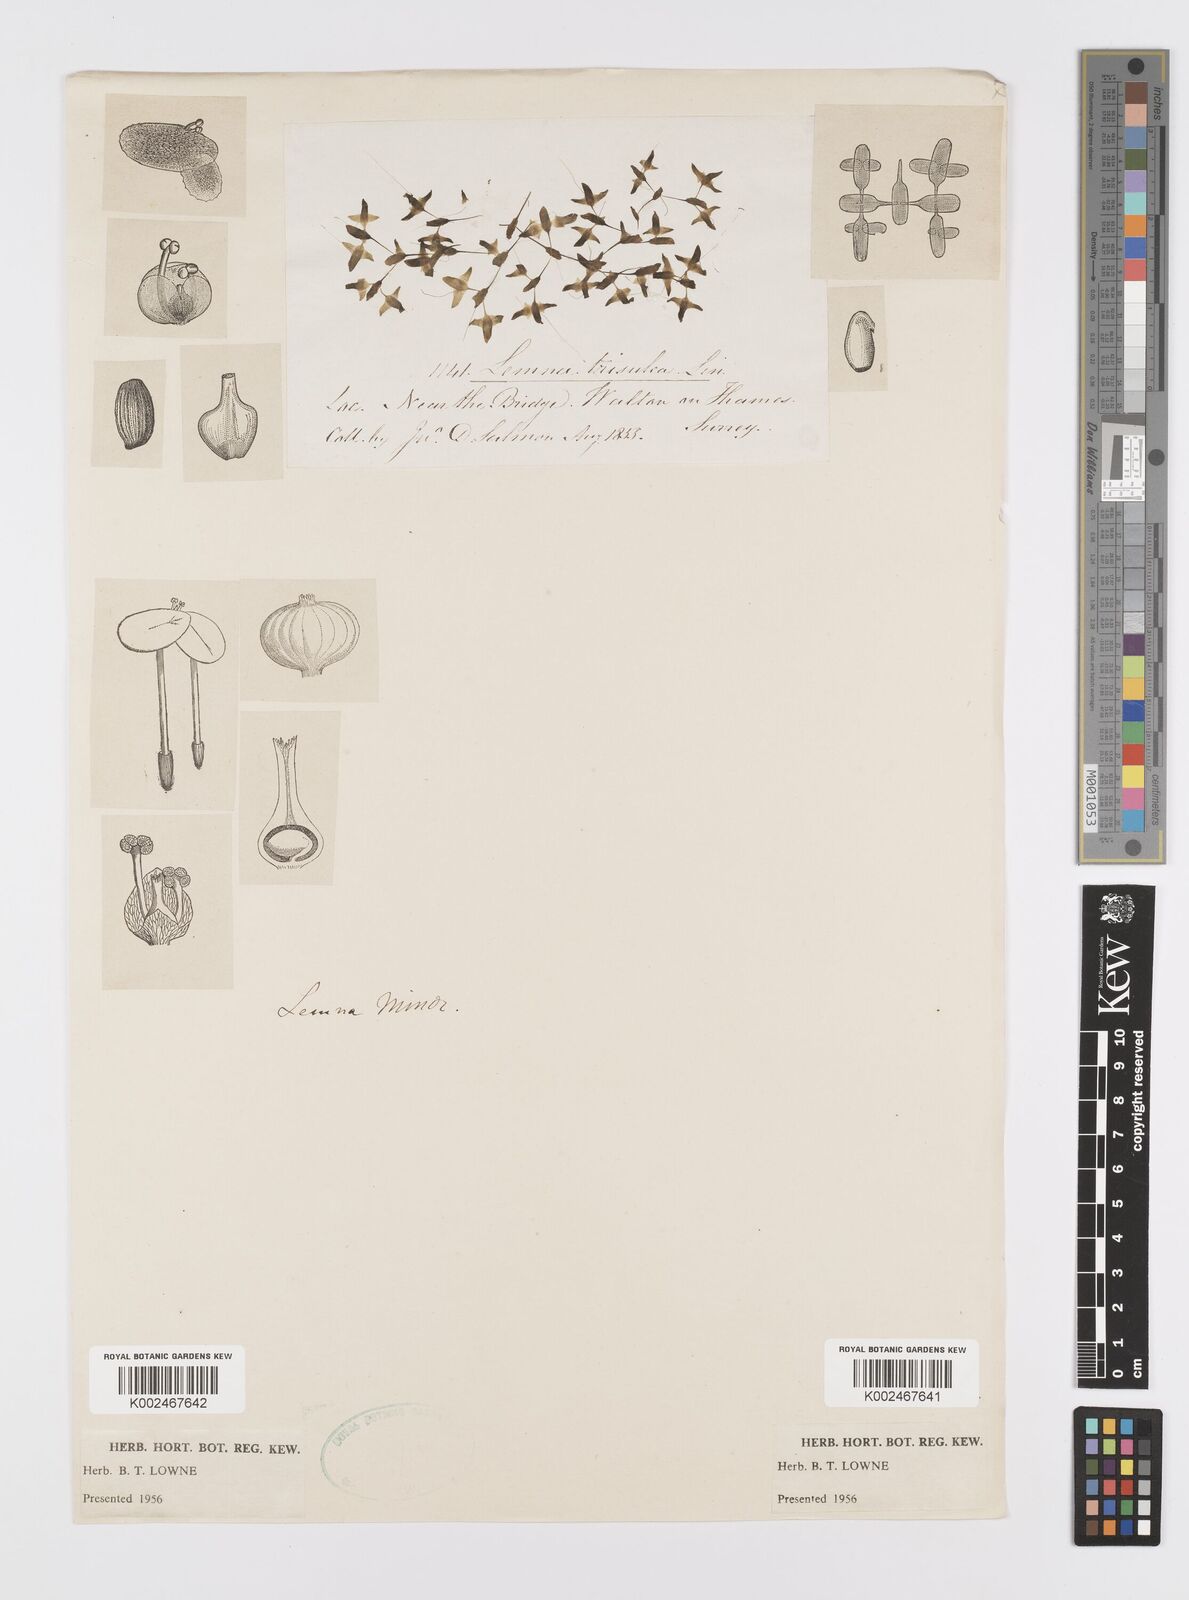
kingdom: Plantae
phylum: Tracheophyta
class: Liliopsida
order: Alismatales
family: Araceae
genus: Lemna
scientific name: Lemna trisulca
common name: Ivy-leaved duckweed
